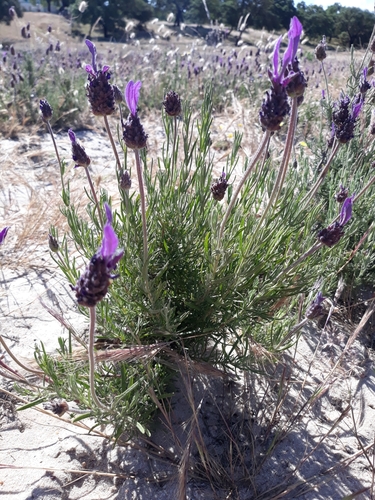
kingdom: Plantae
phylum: Tracheophyta
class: Magnoliopsida
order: Lamiales
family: Lamiaceae
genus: Lavandula
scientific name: Lavandula pedunculata
